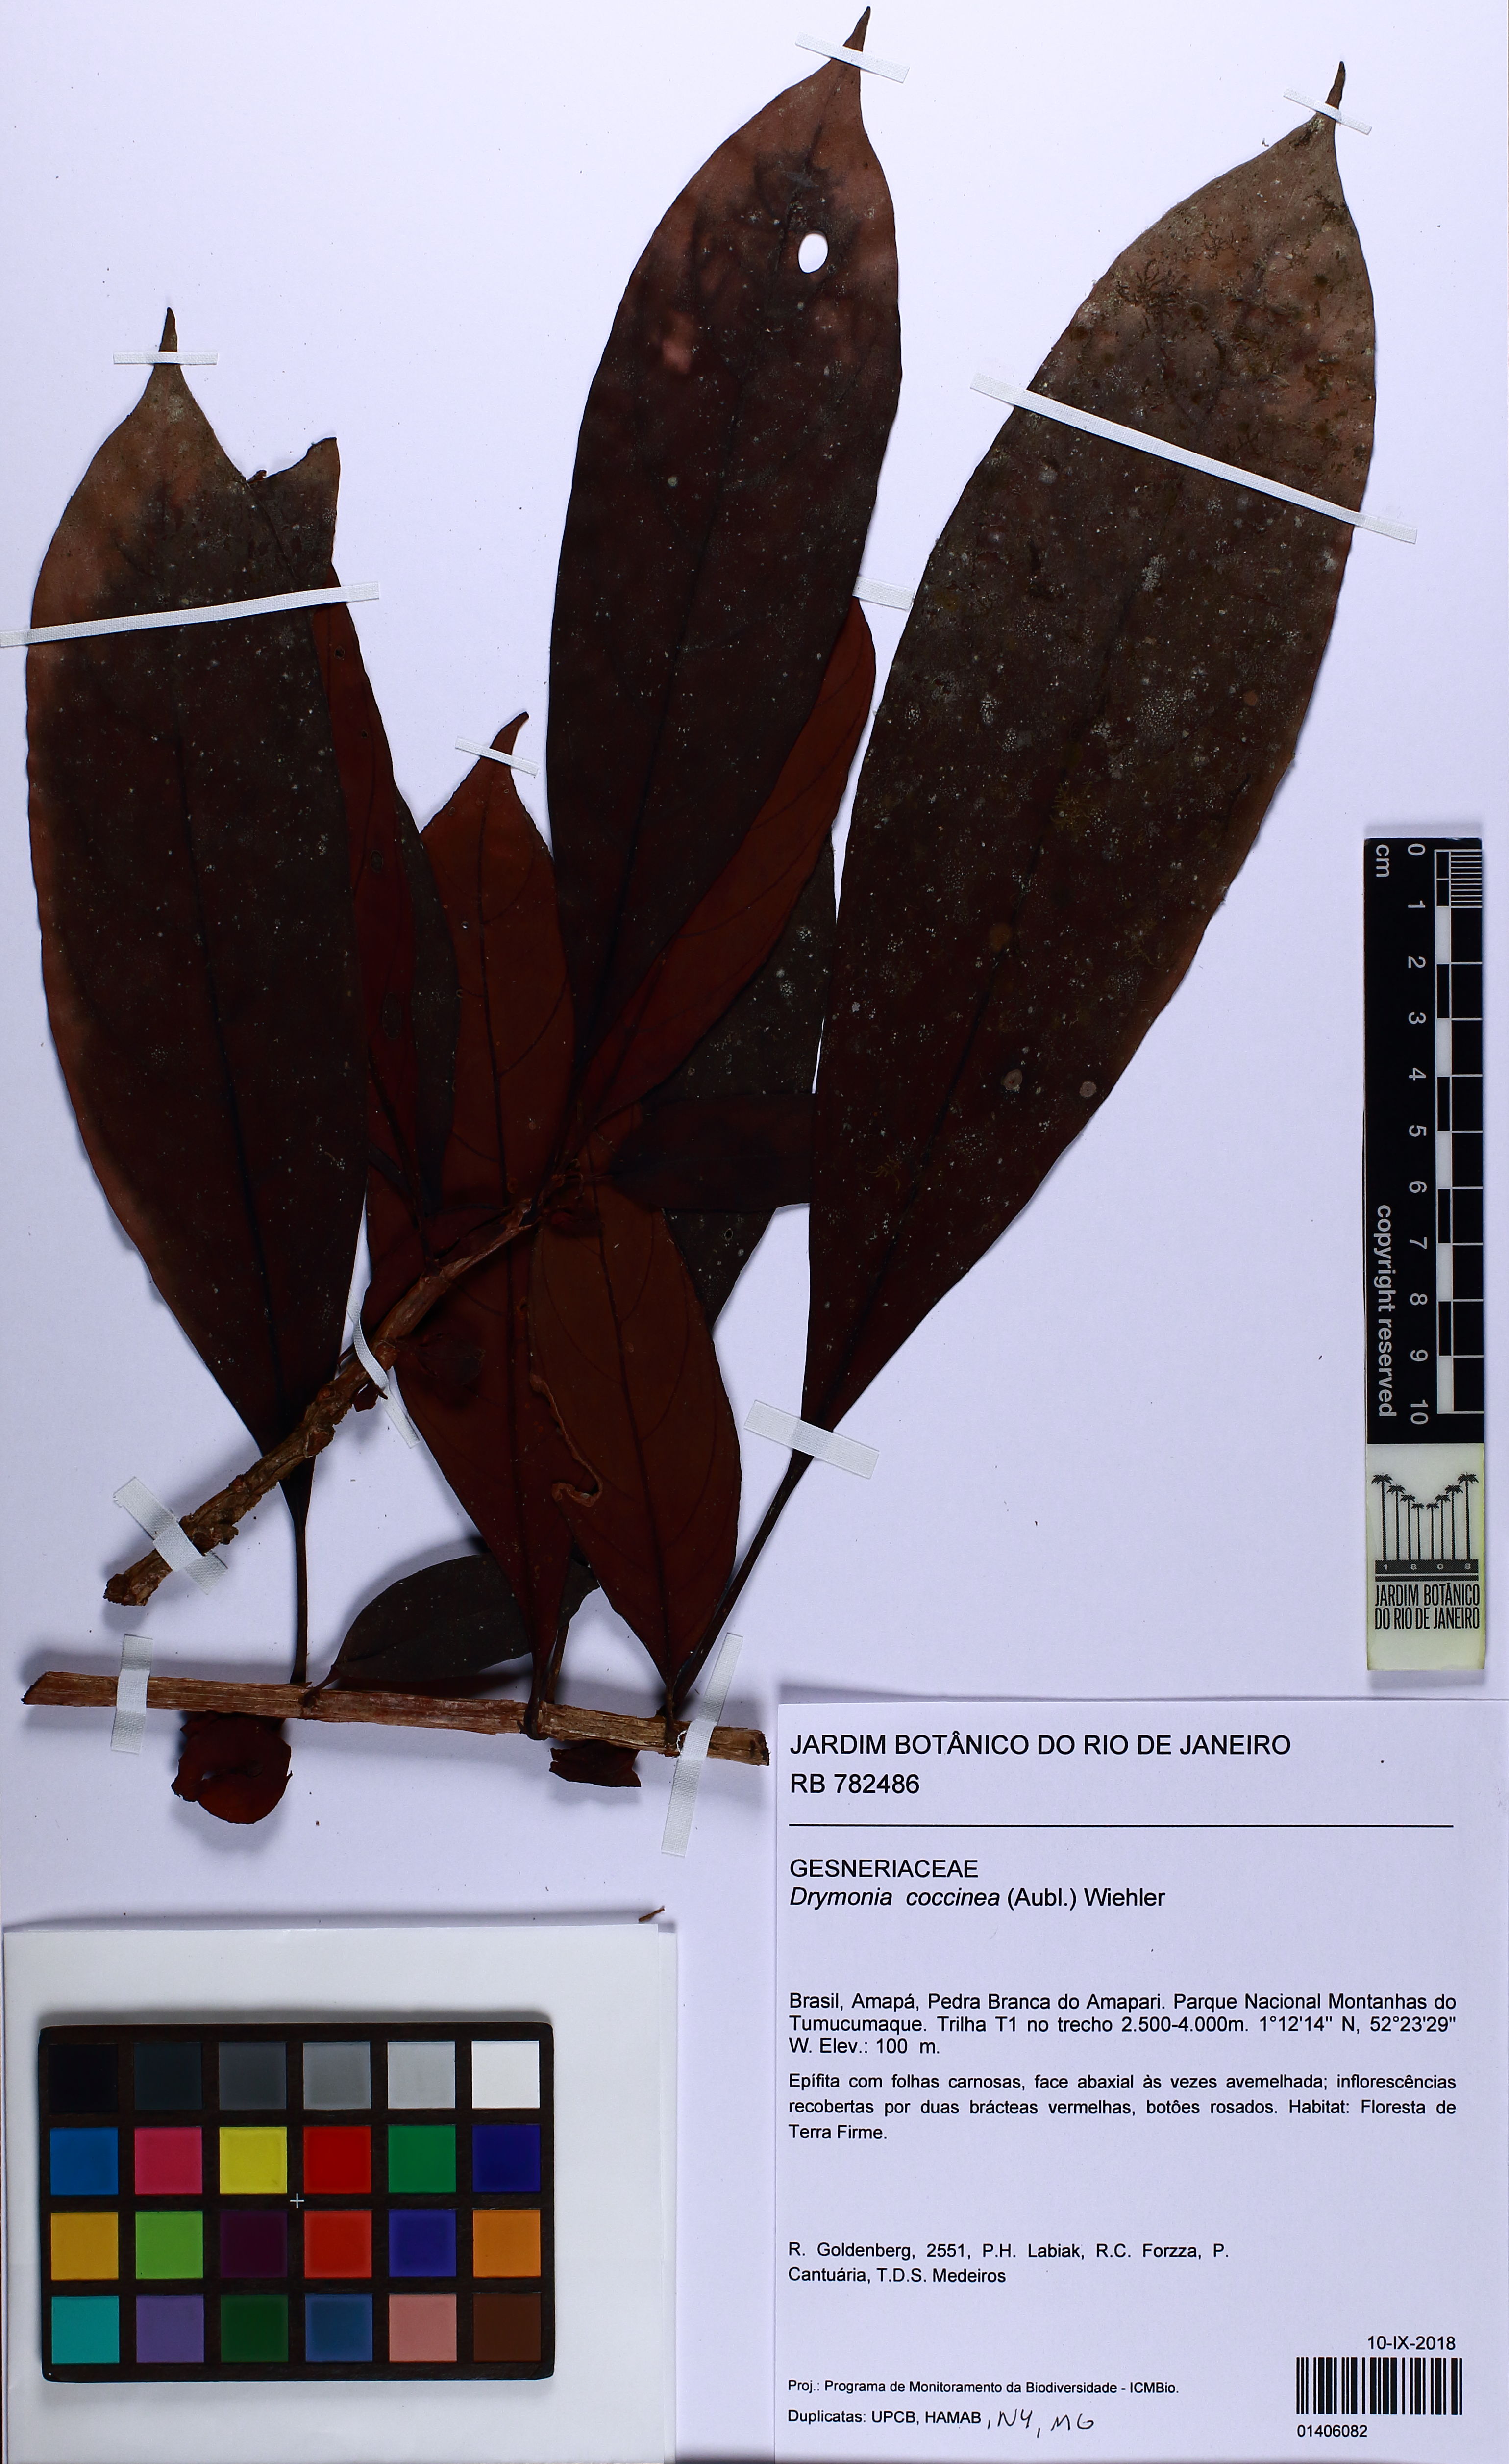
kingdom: Plantae
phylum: Tracheophyta
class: Magnoliopsida
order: Lamiales
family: Gesneriaceae
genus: Drymonia
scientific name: Drymonia coccinea
